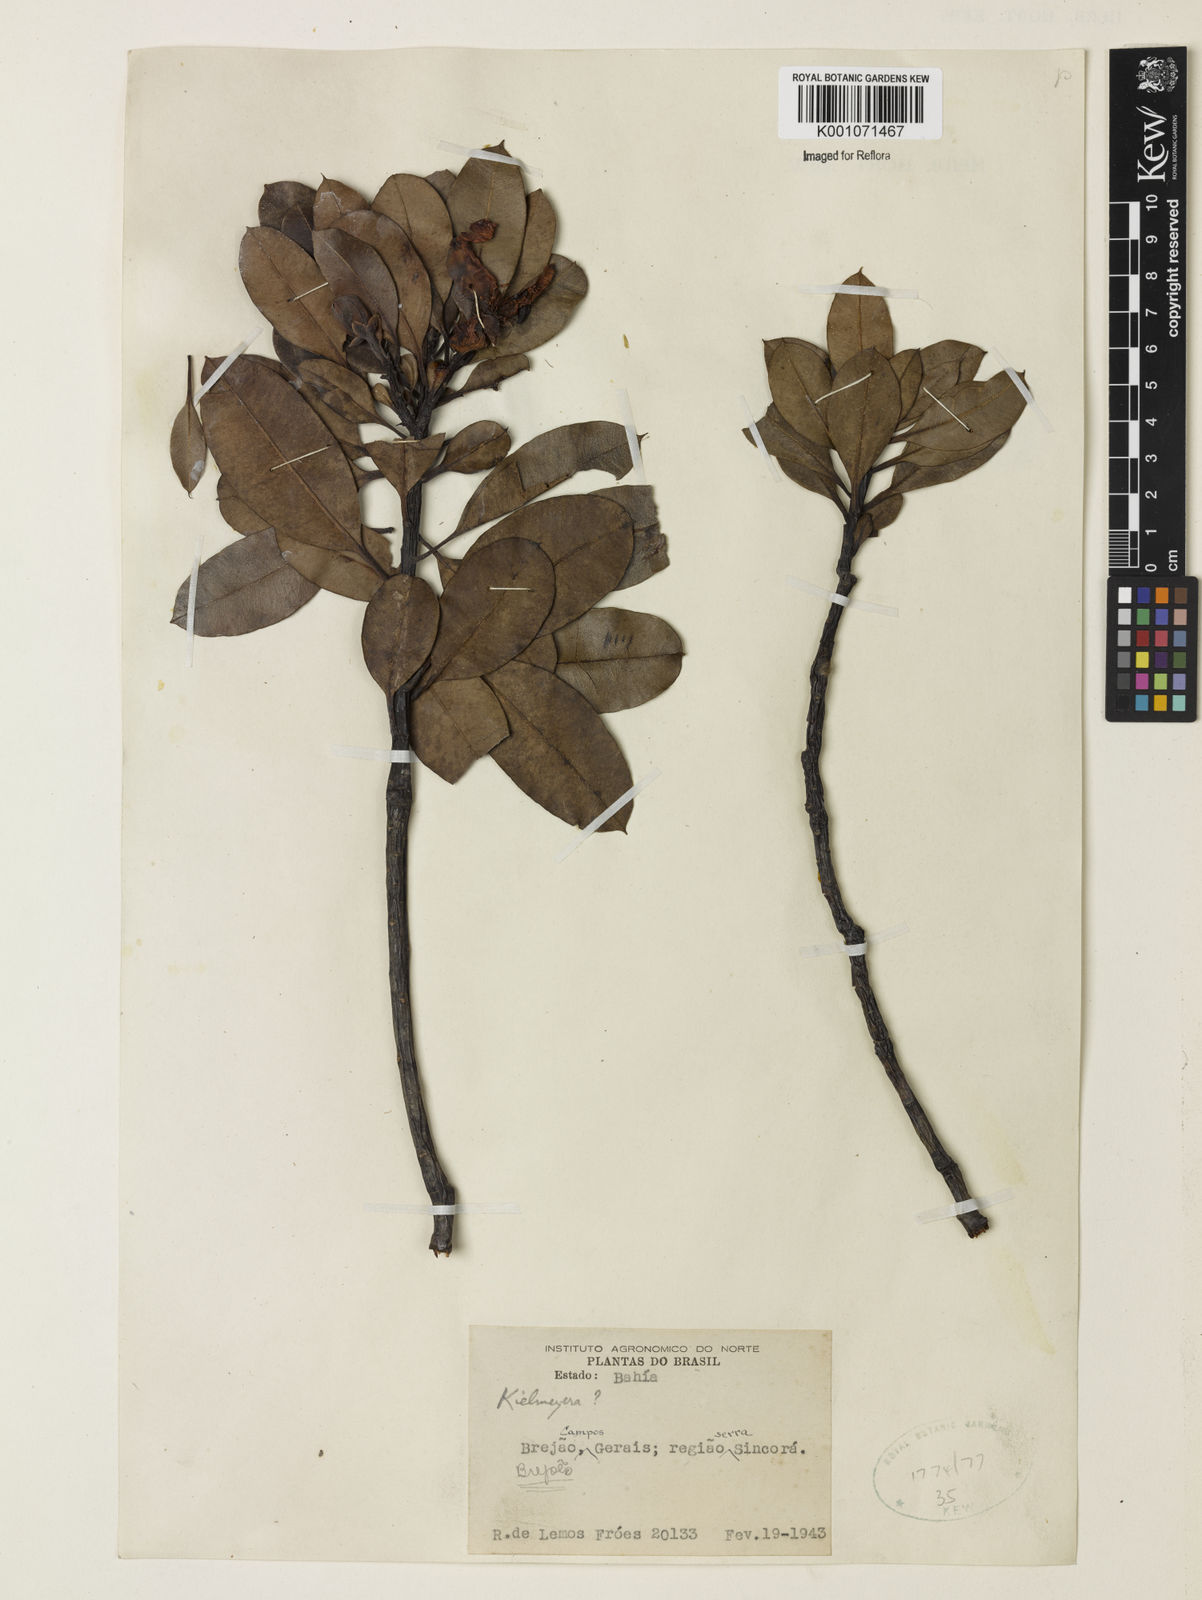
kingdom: Plantae
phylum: Tracheophyta
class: Magnoliopsida
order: Malpighiales
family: Calophyllaceae
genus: Kielmeyera
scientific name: Kielmeyera cuspidata
